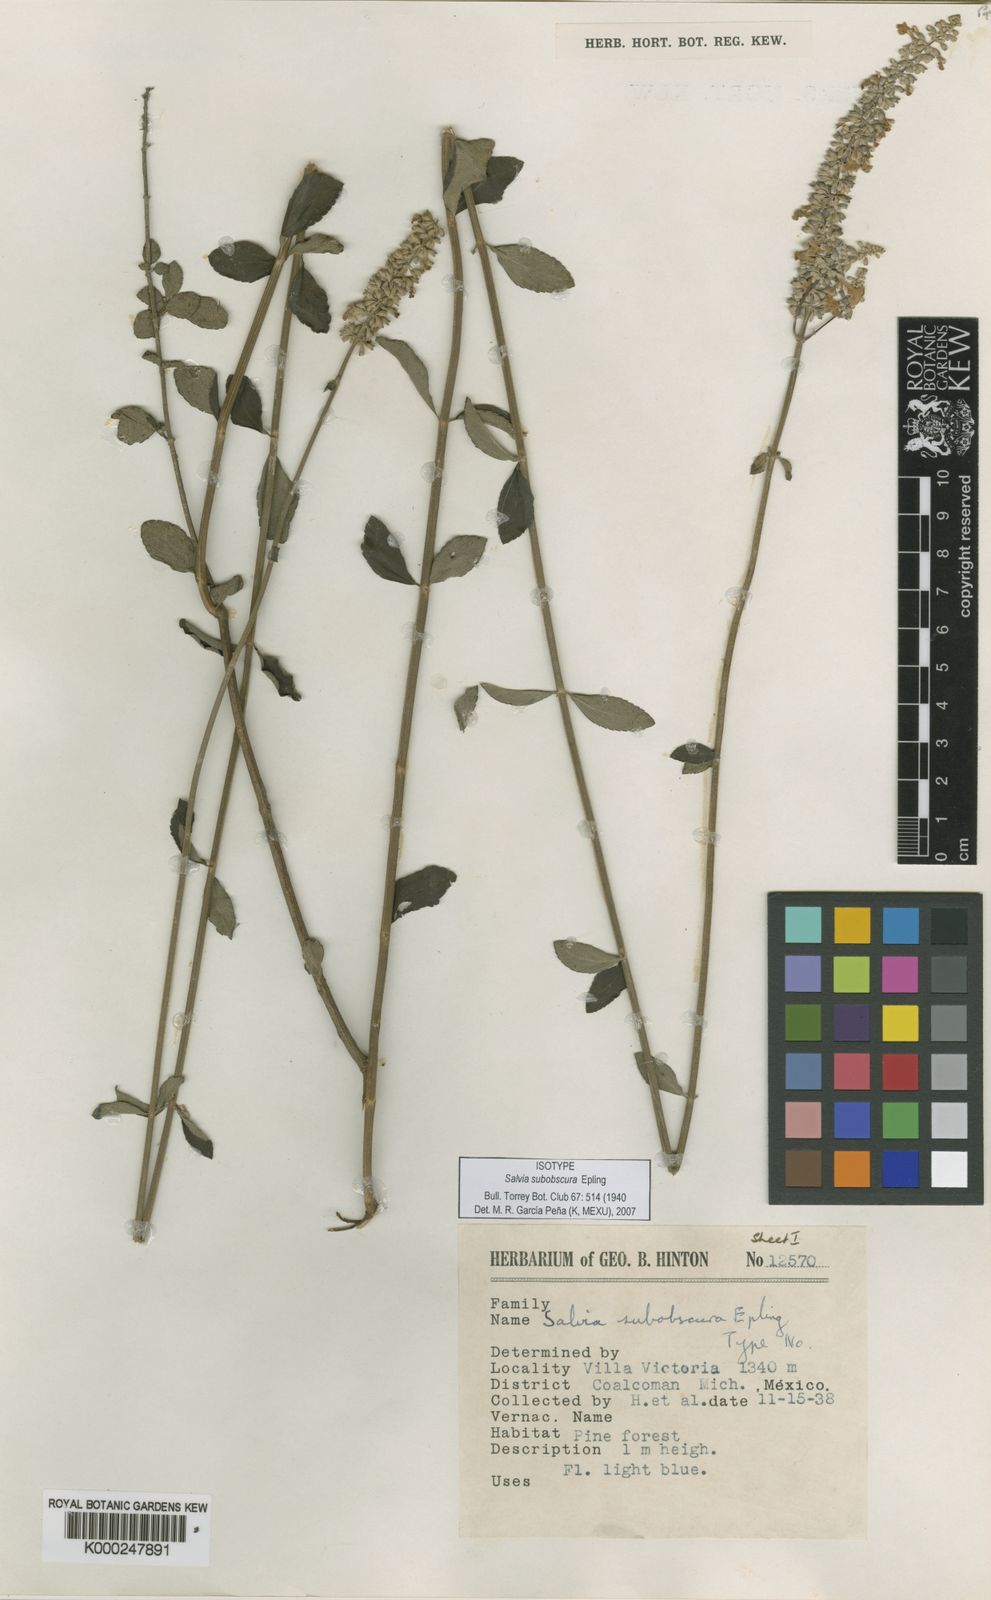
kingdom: Plantae
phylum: Tracheophyta
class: Magnoliopsida
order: Lamiales
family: Lamiaceae
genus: Salvia
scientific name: Salvia subobscura
